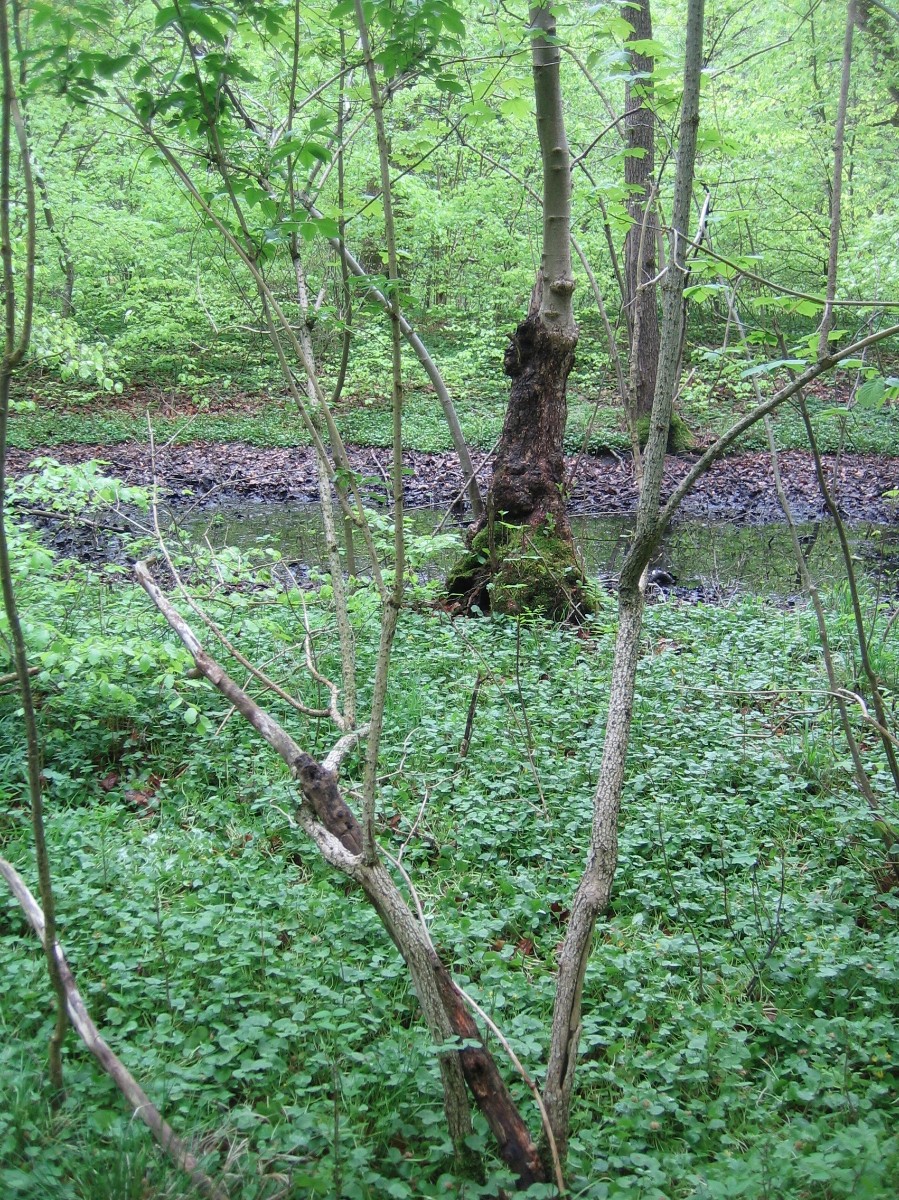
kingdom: Fungi
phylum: Ascomycota
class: Sordariomycetes
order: Xylariales
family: Hypoxylaceae
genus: Hypoxylon
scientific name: Hypoxylon petriniae
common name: nedsænket kulbær
